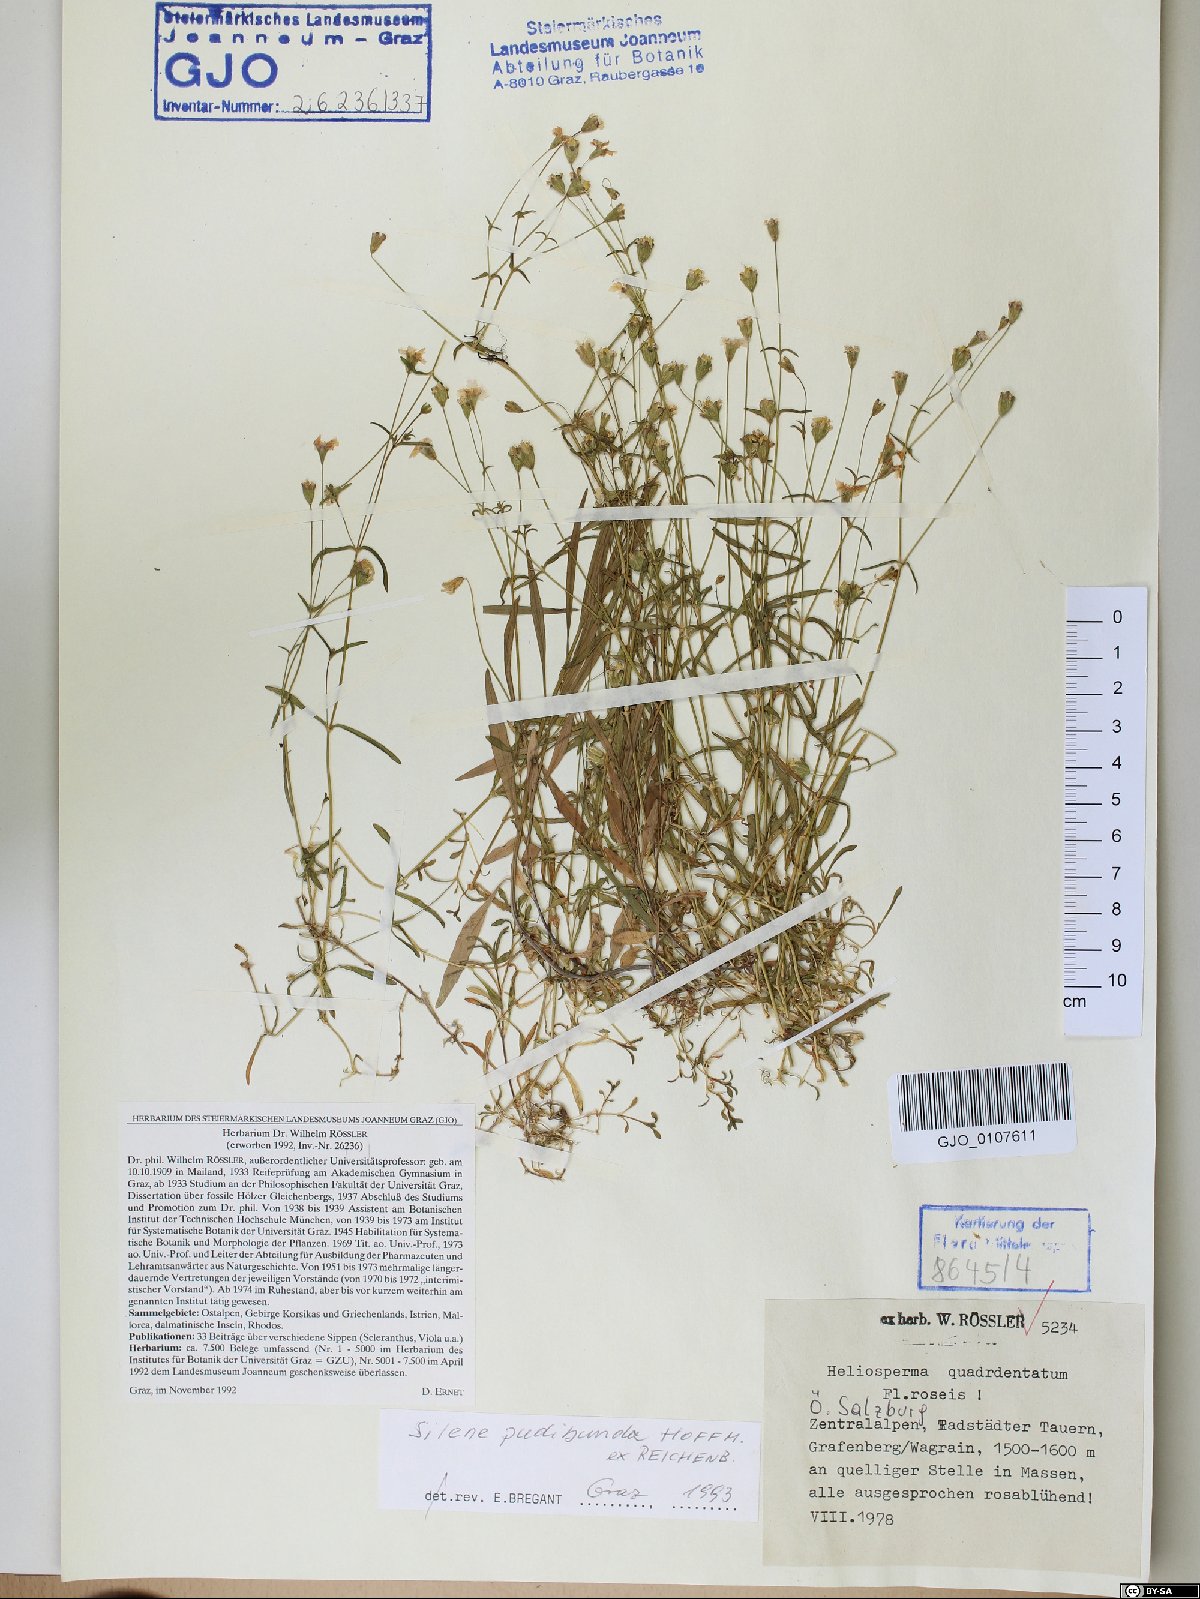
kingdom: Plantae
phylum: Tracheophyta
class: Magnoliopsida
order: Caryophyllales
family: Caryophyllaceae
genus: Heliosperma
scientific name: Heliosperma pudibundum
